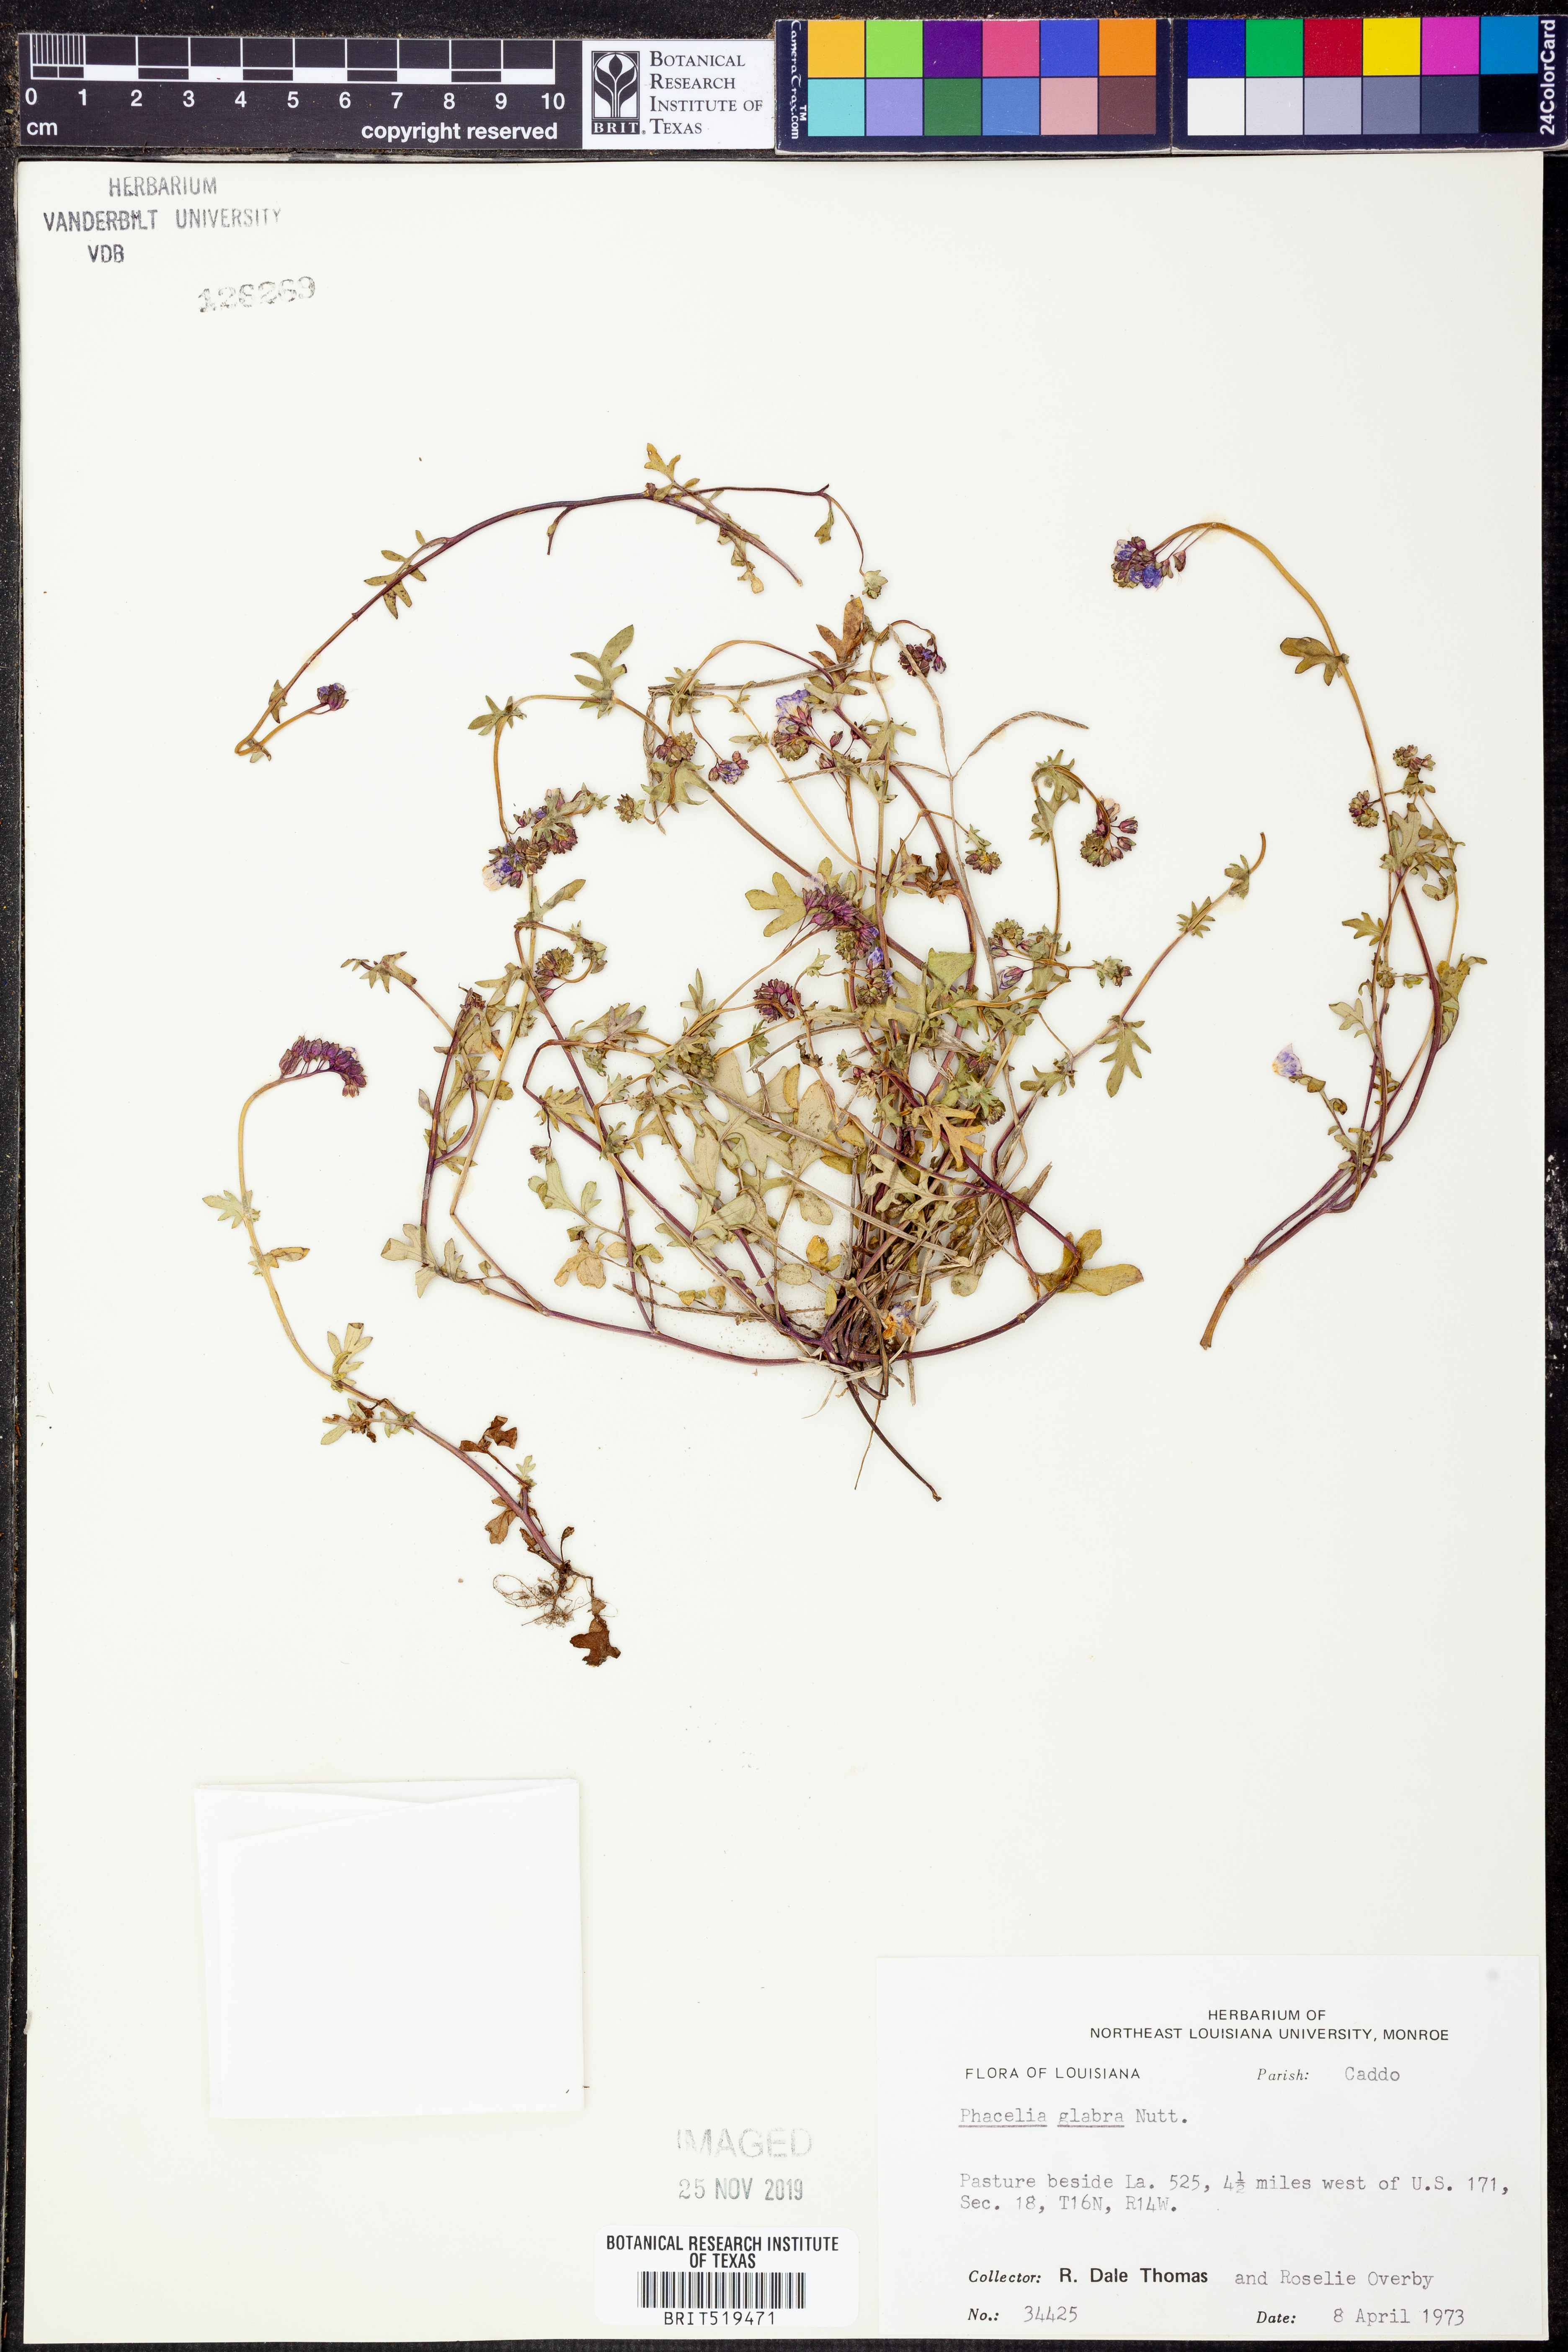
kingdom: Plantae
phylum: Tracheophyta
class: Magnoliopsida
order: Boraginales
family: Hydrophyllaceae
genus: Phacelia
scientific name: Phacelia glabra
